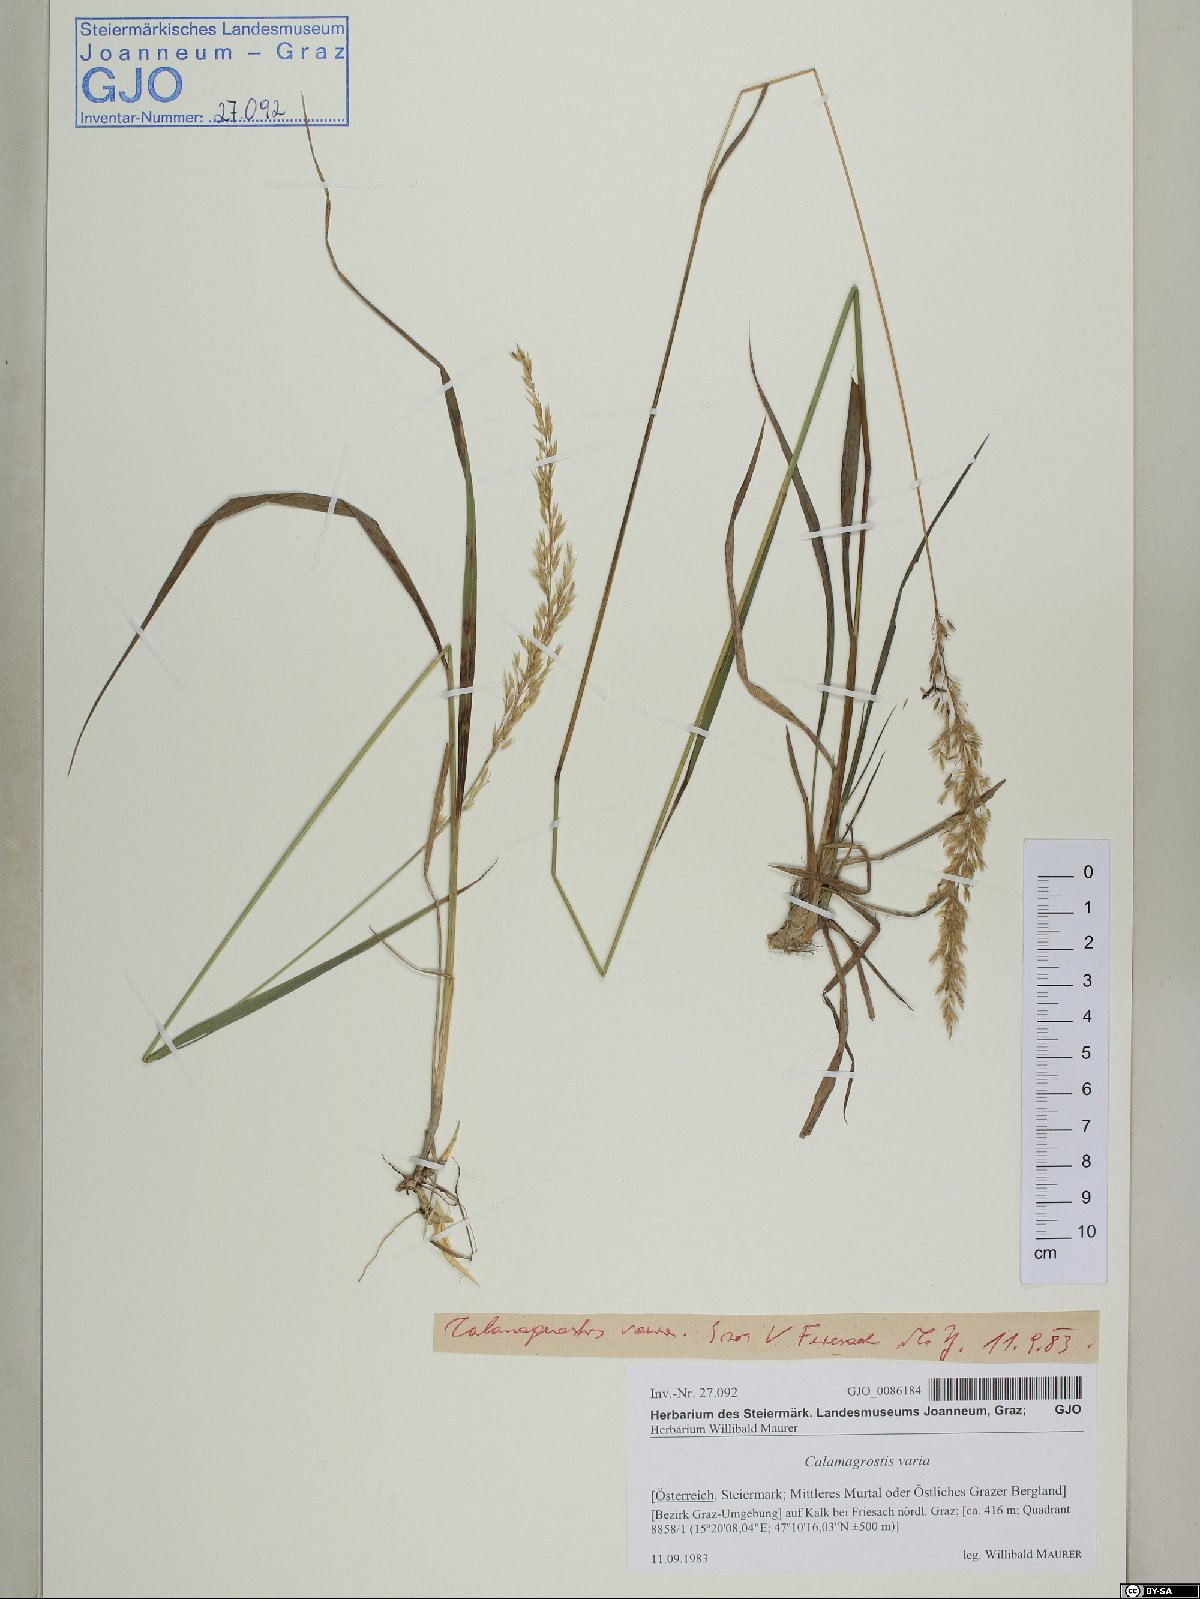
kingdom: Plantae
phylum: Tracheophyta
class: Liliopsida
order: Poales
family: Poaceae
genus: Calamagrostis
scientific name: Calamagrostis varia
